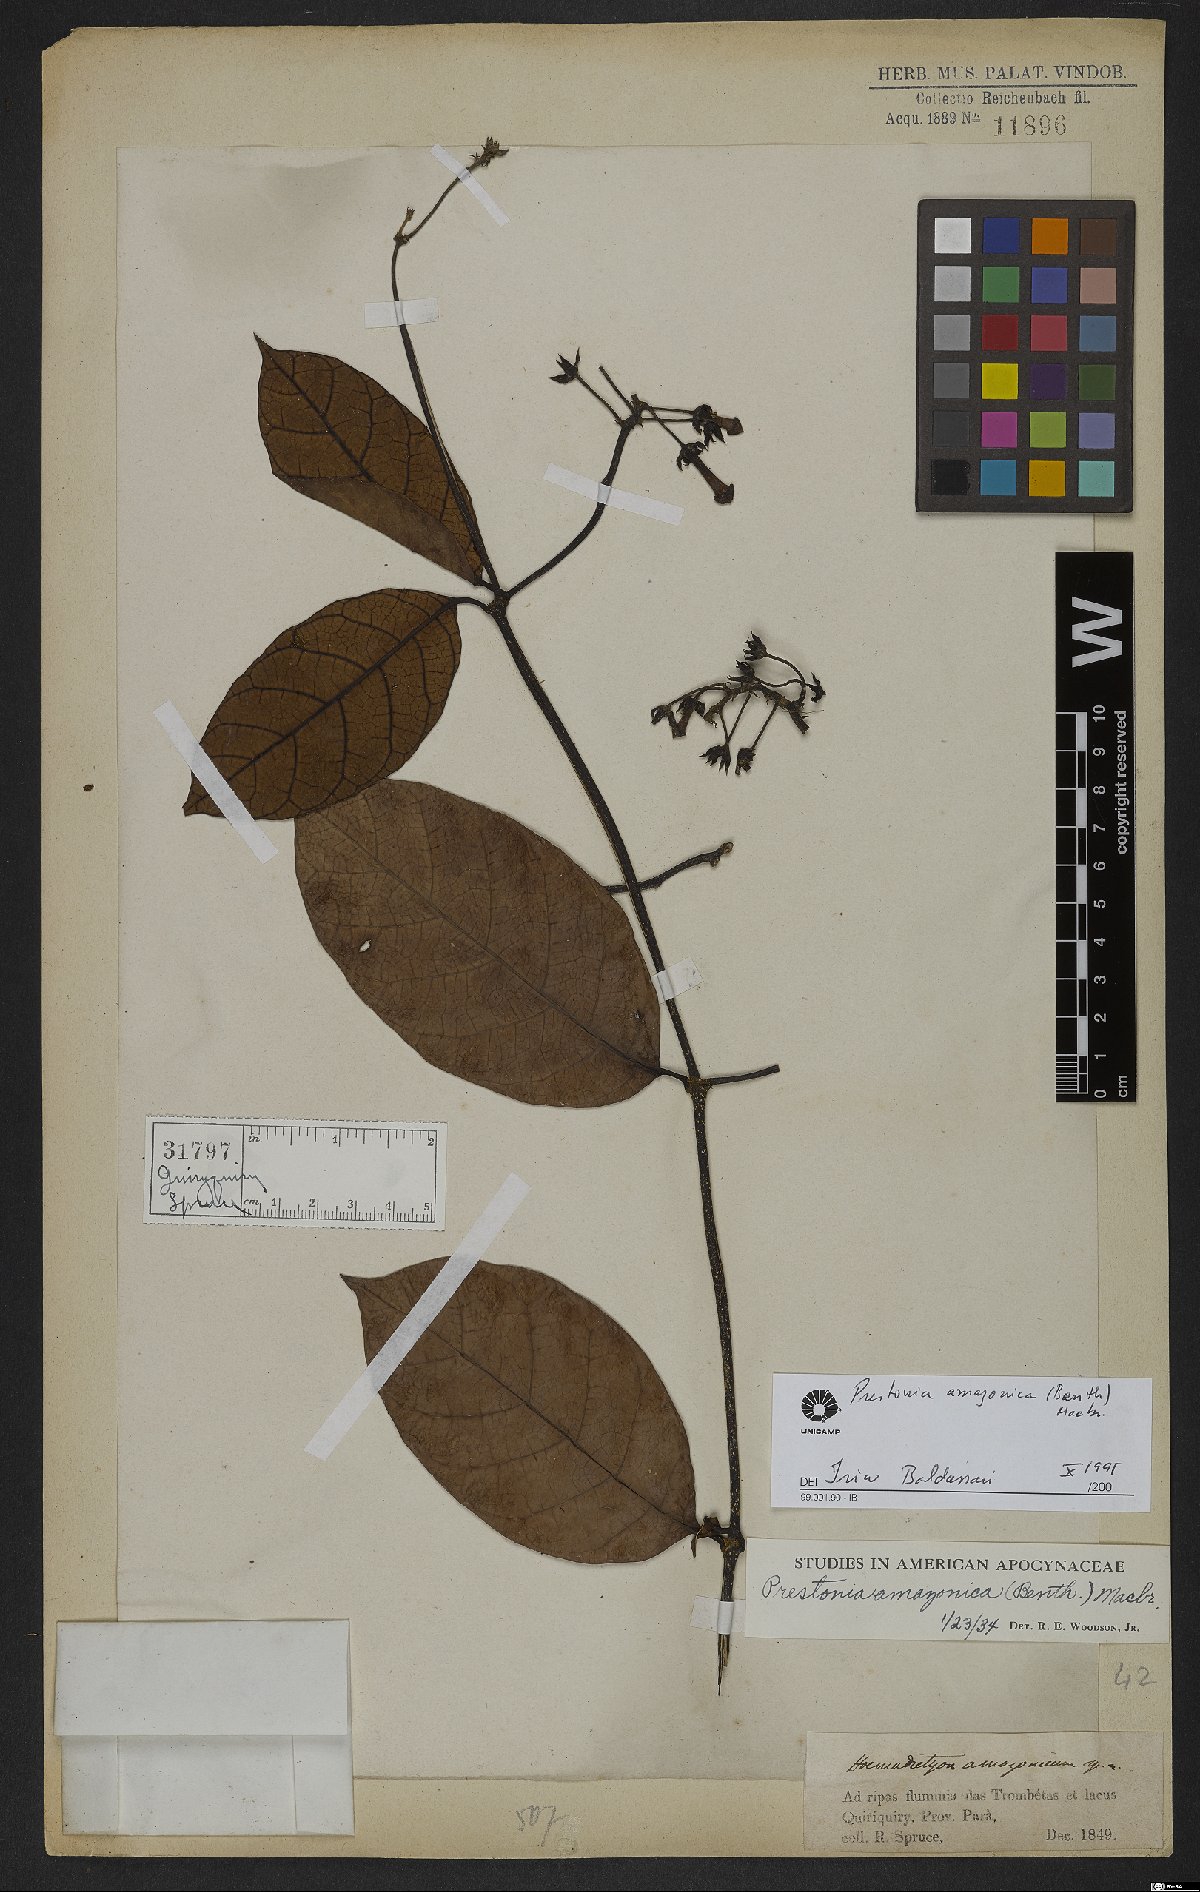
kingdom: Plantae
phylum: Tracheophyta
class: Magnoliopsida
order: Gentianales
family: Apocynaceae
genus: Prestonia
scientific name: Prestonia amazonica
